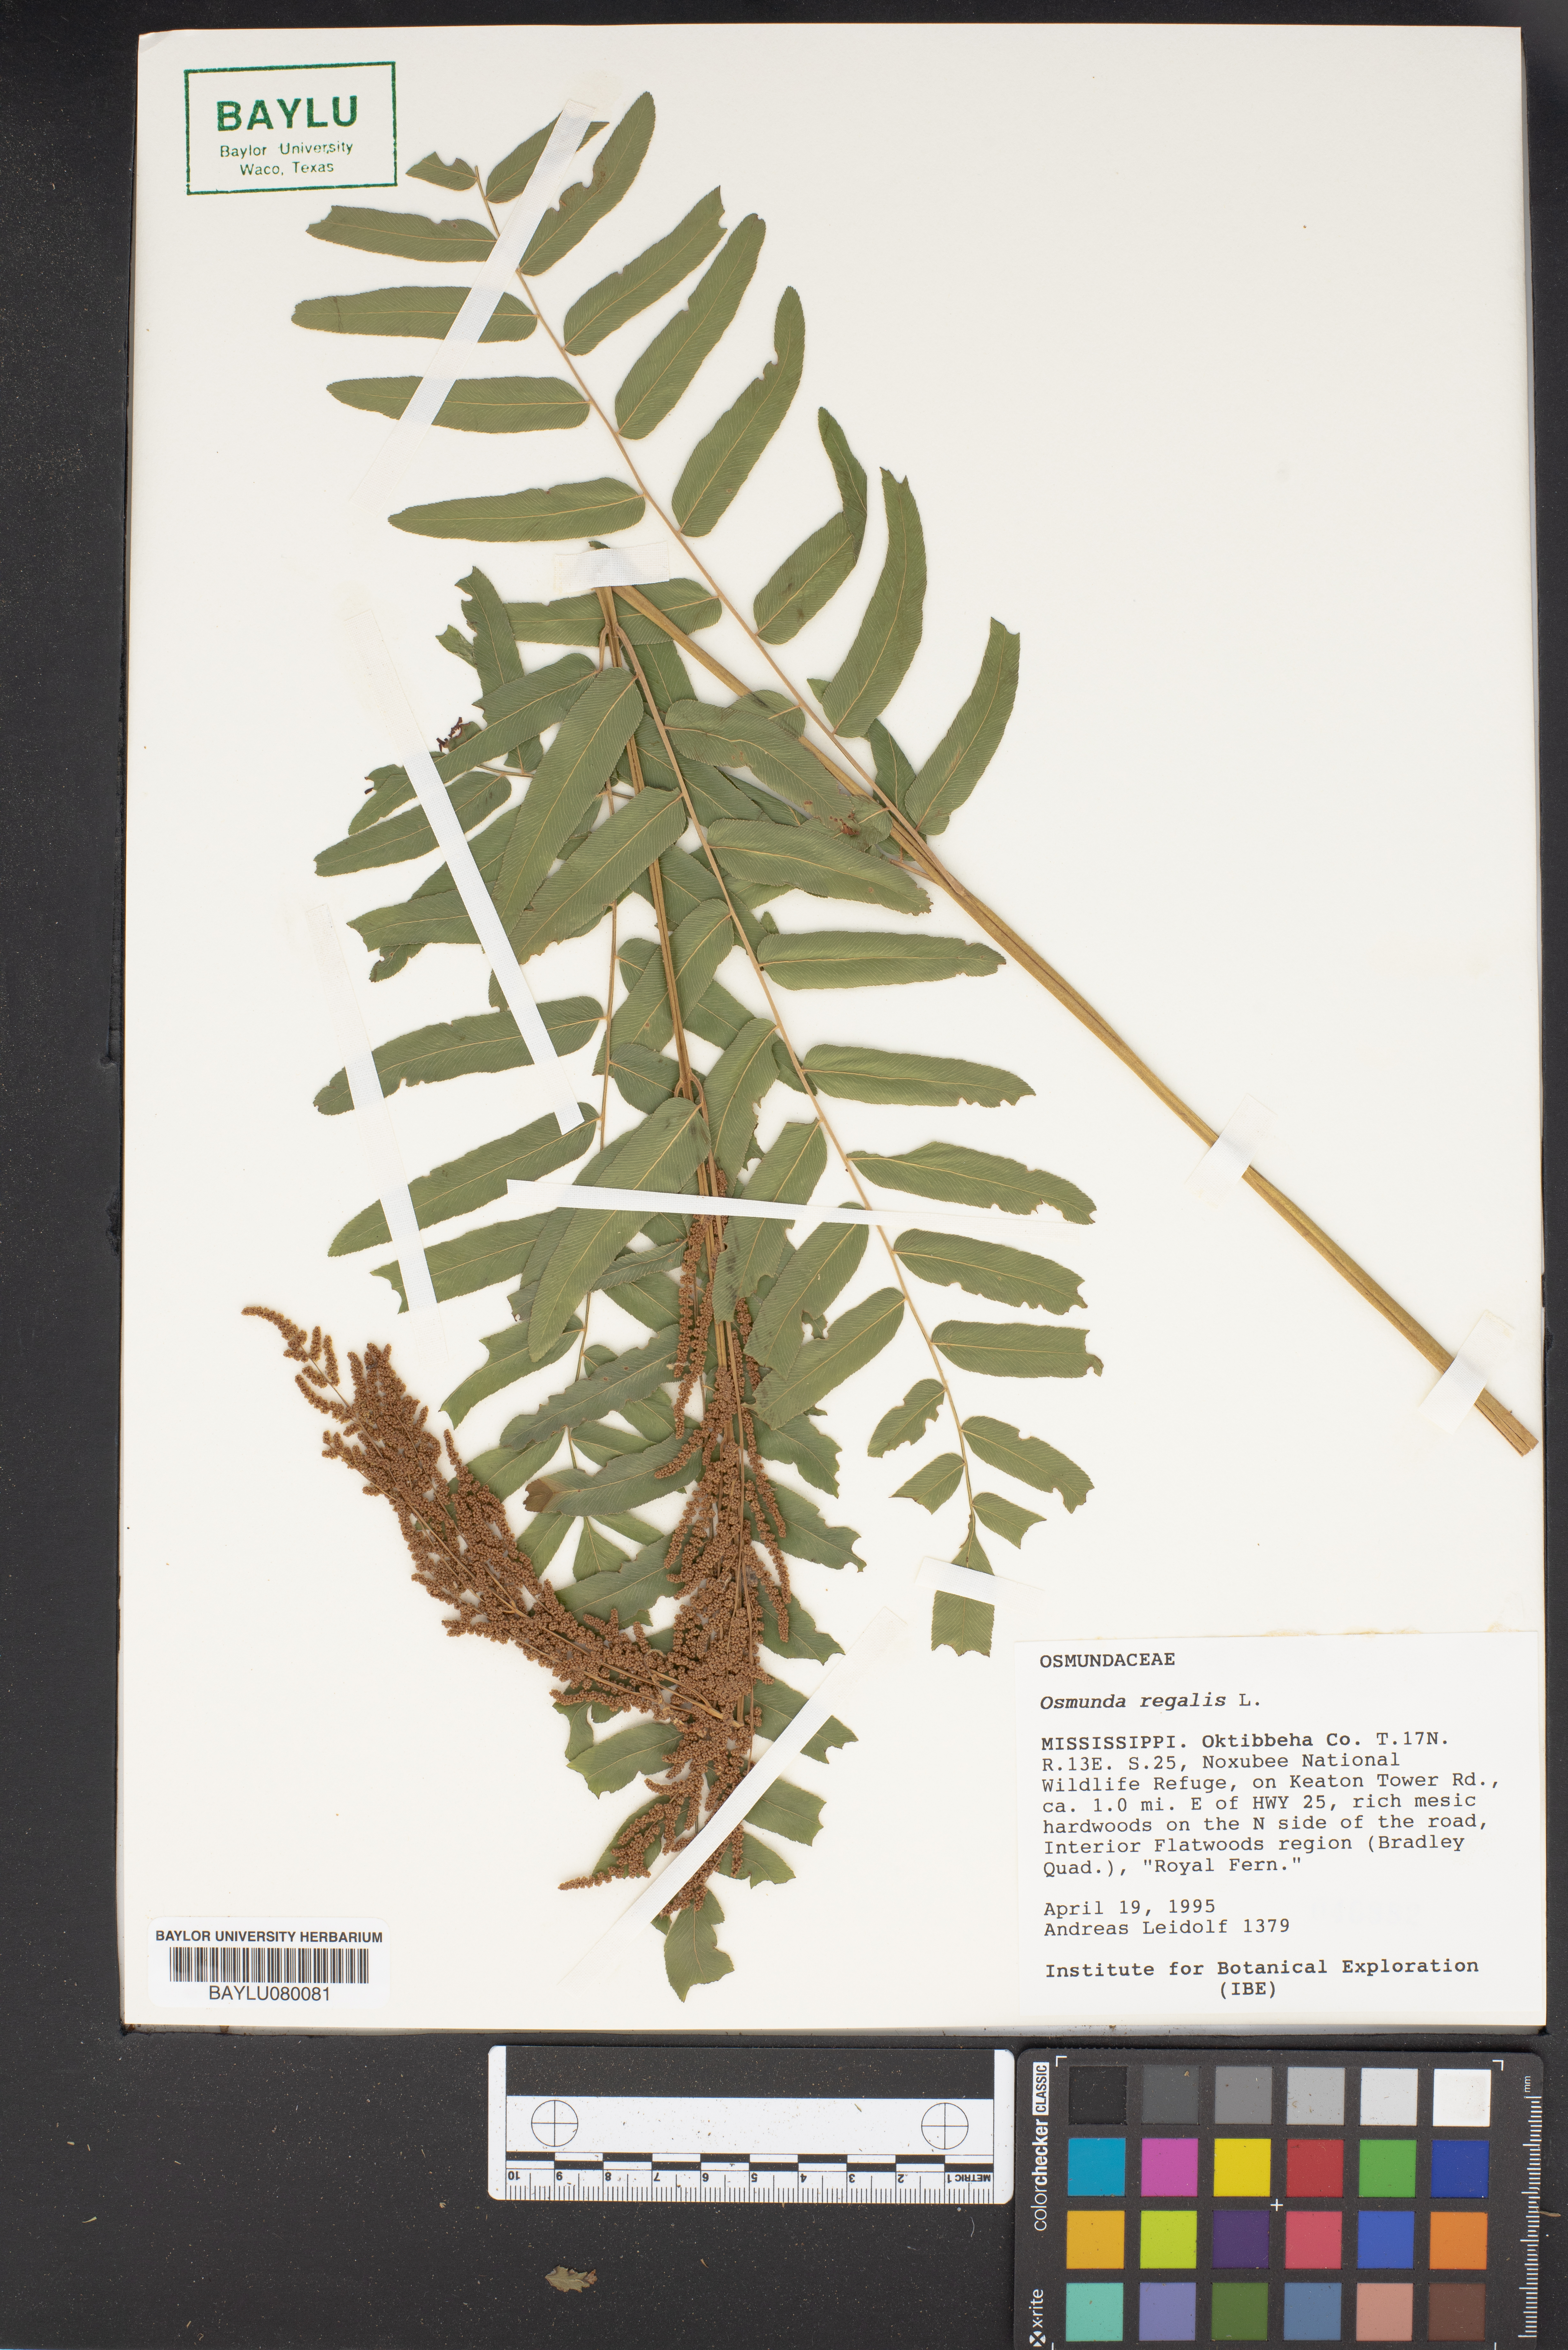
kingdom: Plantae
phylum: Tracheophyta
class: Polypodiopsida
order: Osmundales
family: Osmundaceae
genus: Osmunda
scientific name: Osmunda regalis
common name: Royal fern
